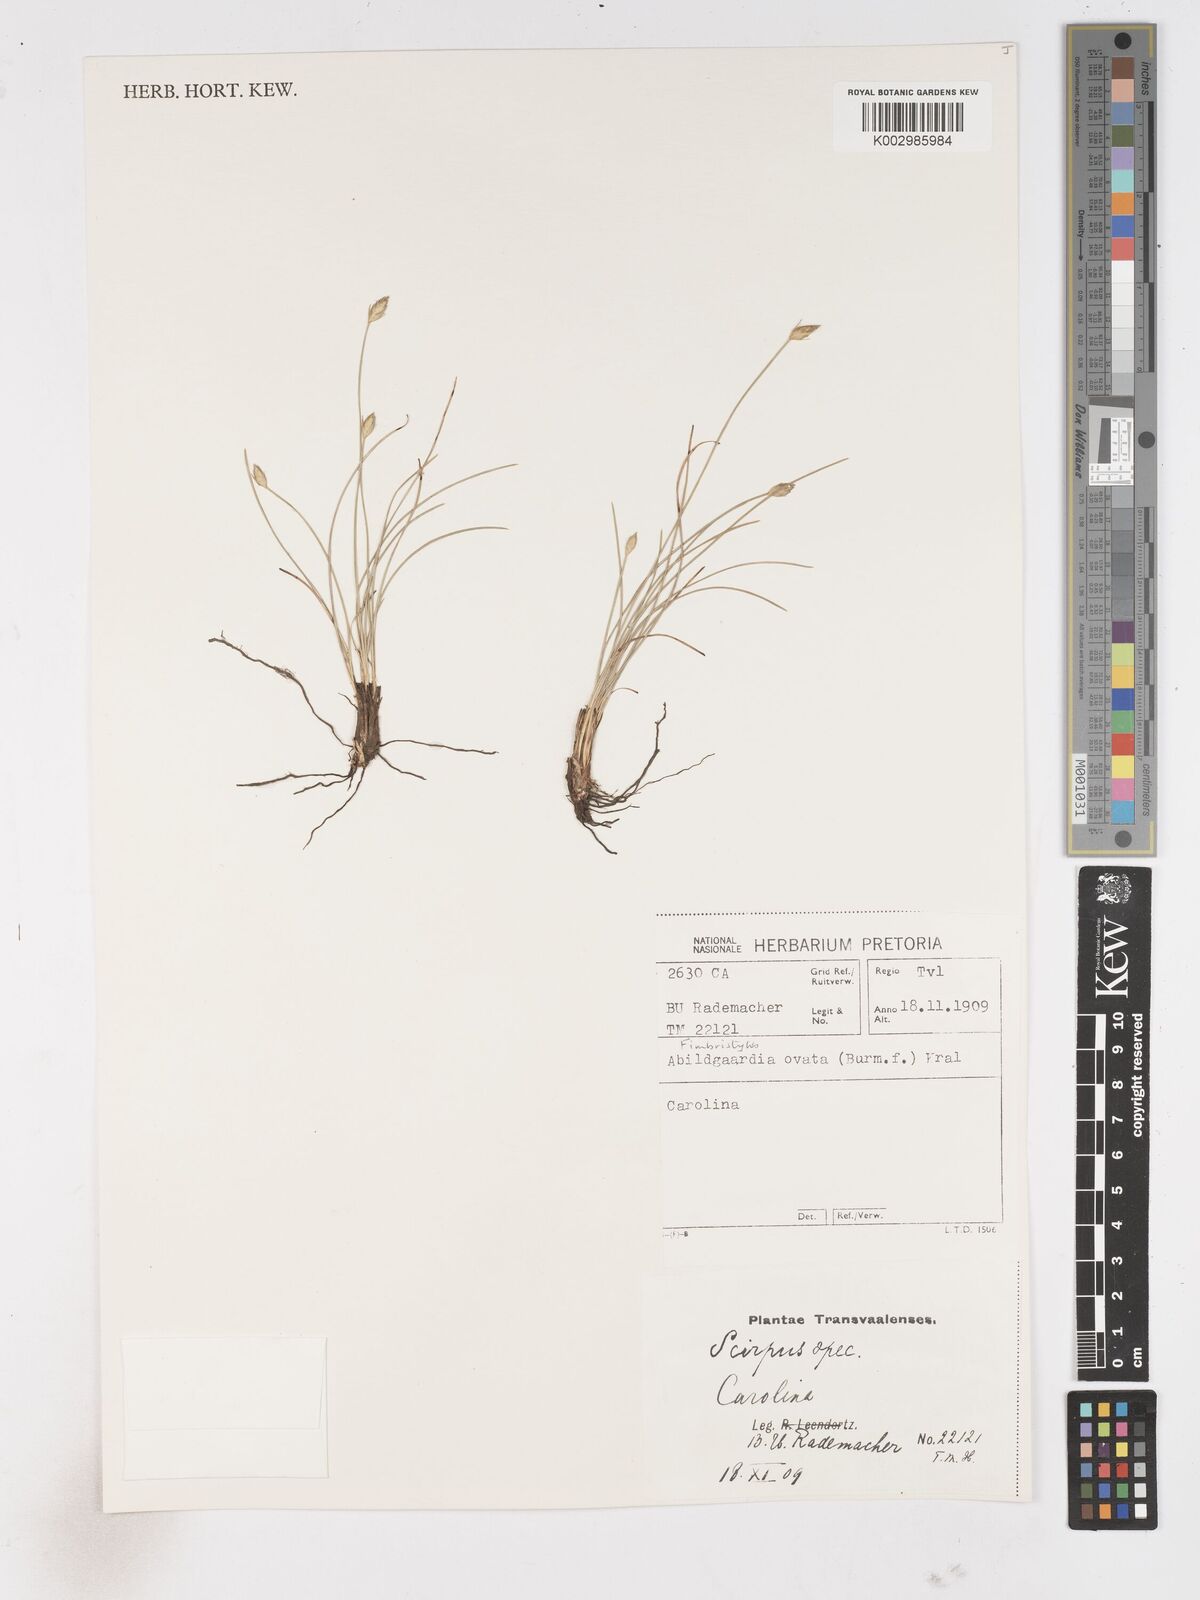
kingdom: Plantae
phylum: Tracheophyta
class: Liliopsida
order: Poales
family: Cyperaceae
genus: Abildgaardia
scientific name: Abildgaardia ovata
